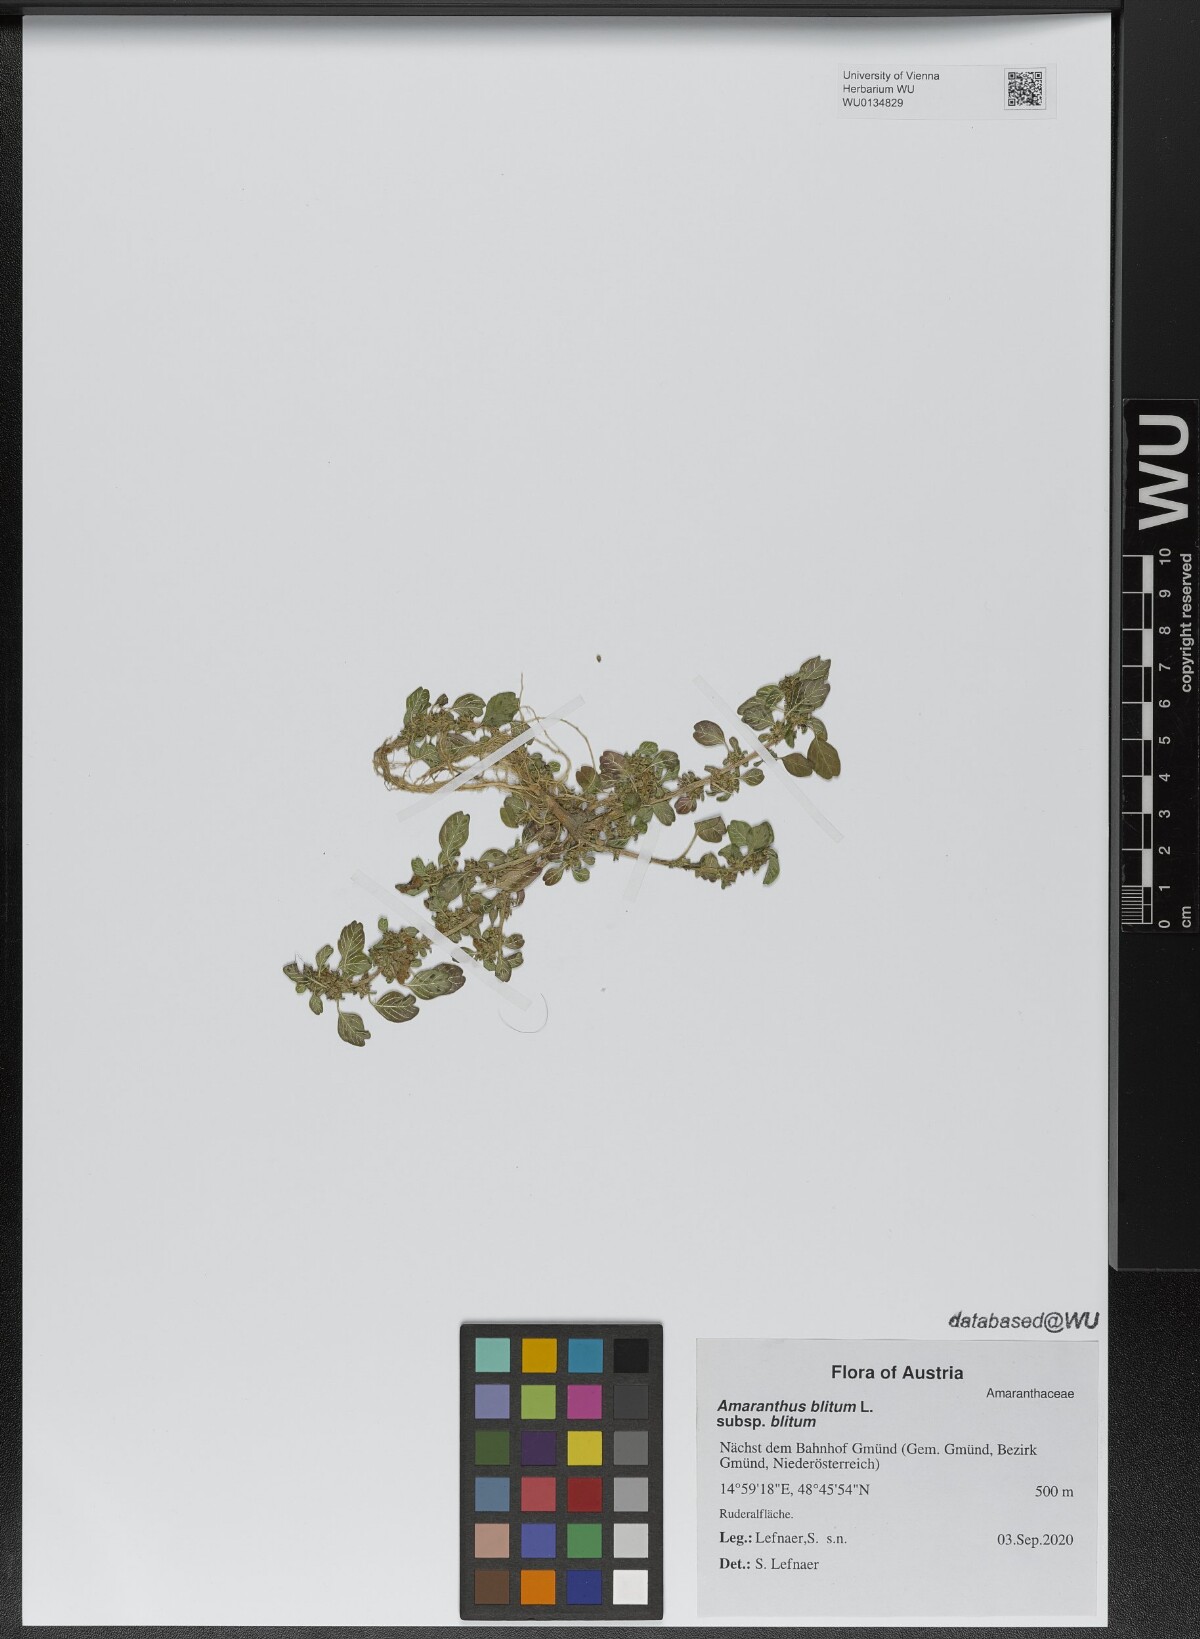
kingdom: Plantae
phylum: Tracheophyta
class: Magnoliopsida
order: Caryophyllales
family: Amaranthaceae
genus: Amaranthus
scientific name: Amaranthus blitum
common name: Purple amaranth
